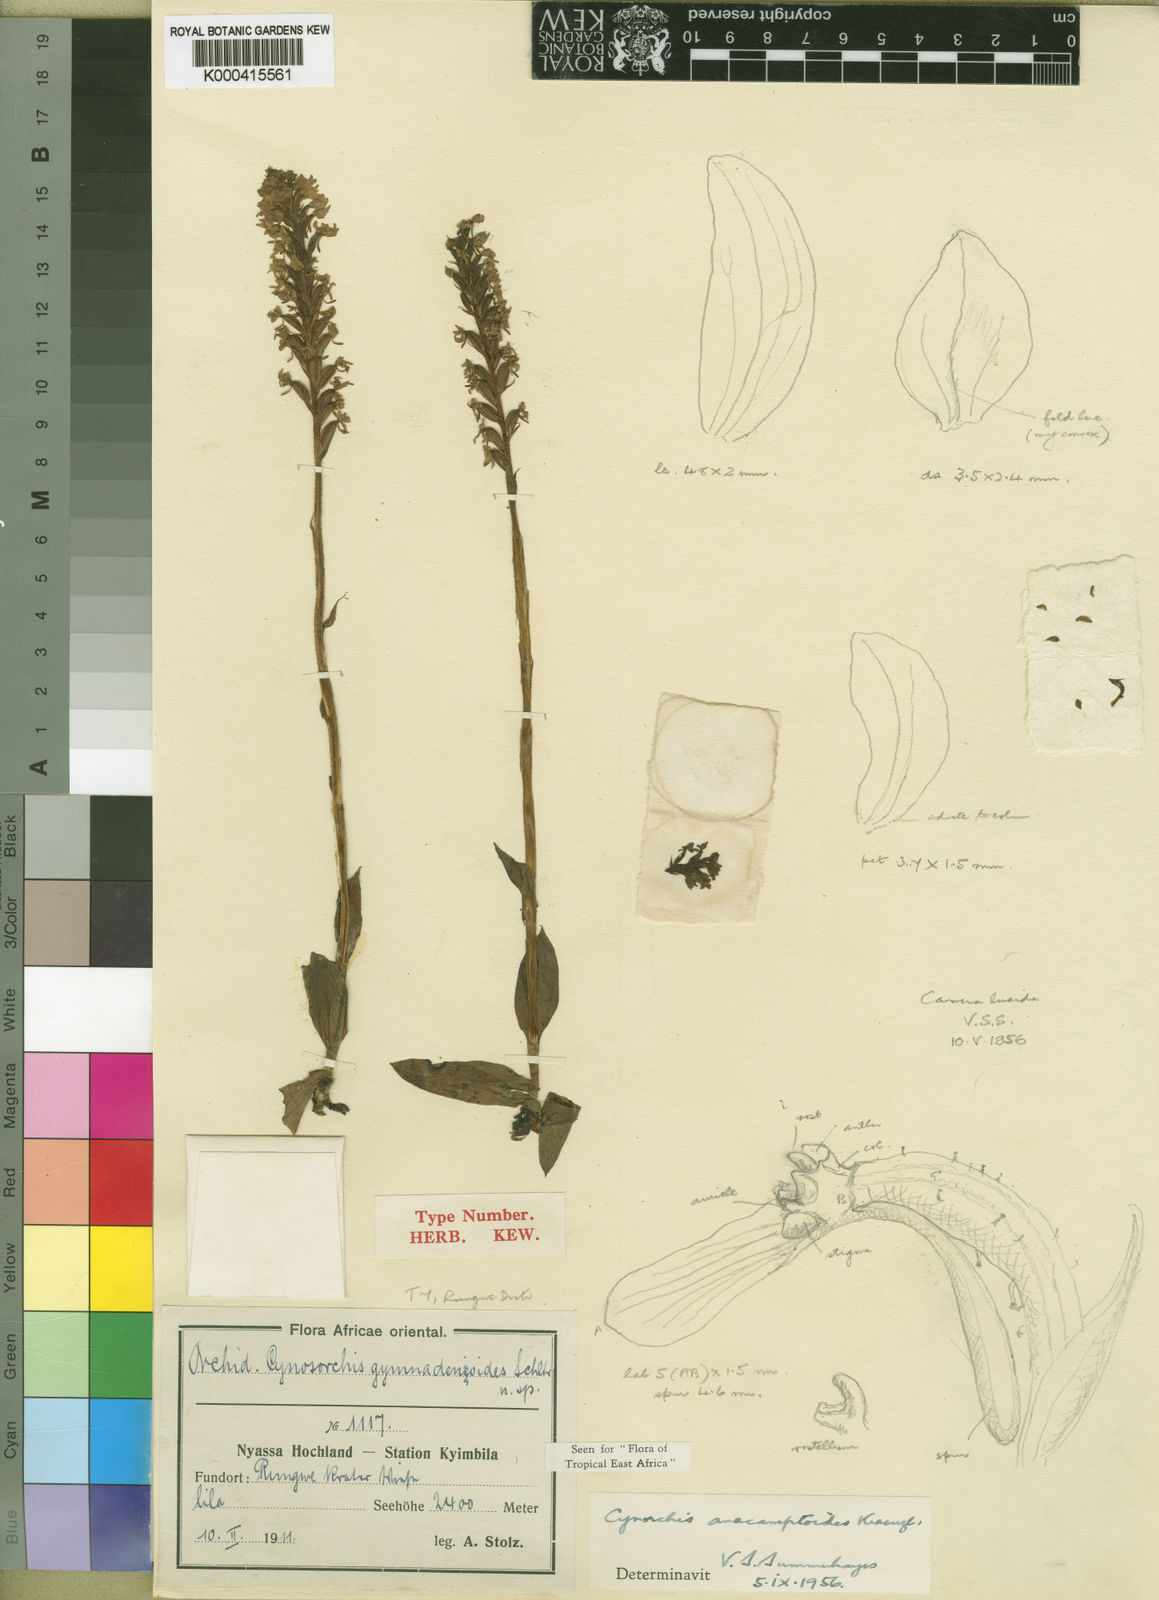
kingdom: Plantae
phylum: Tracheophyta
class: Liliopsida
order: Asparagales
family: Orchidaceae
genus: Cynorkis
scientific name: Cynorkis anacamptoides
